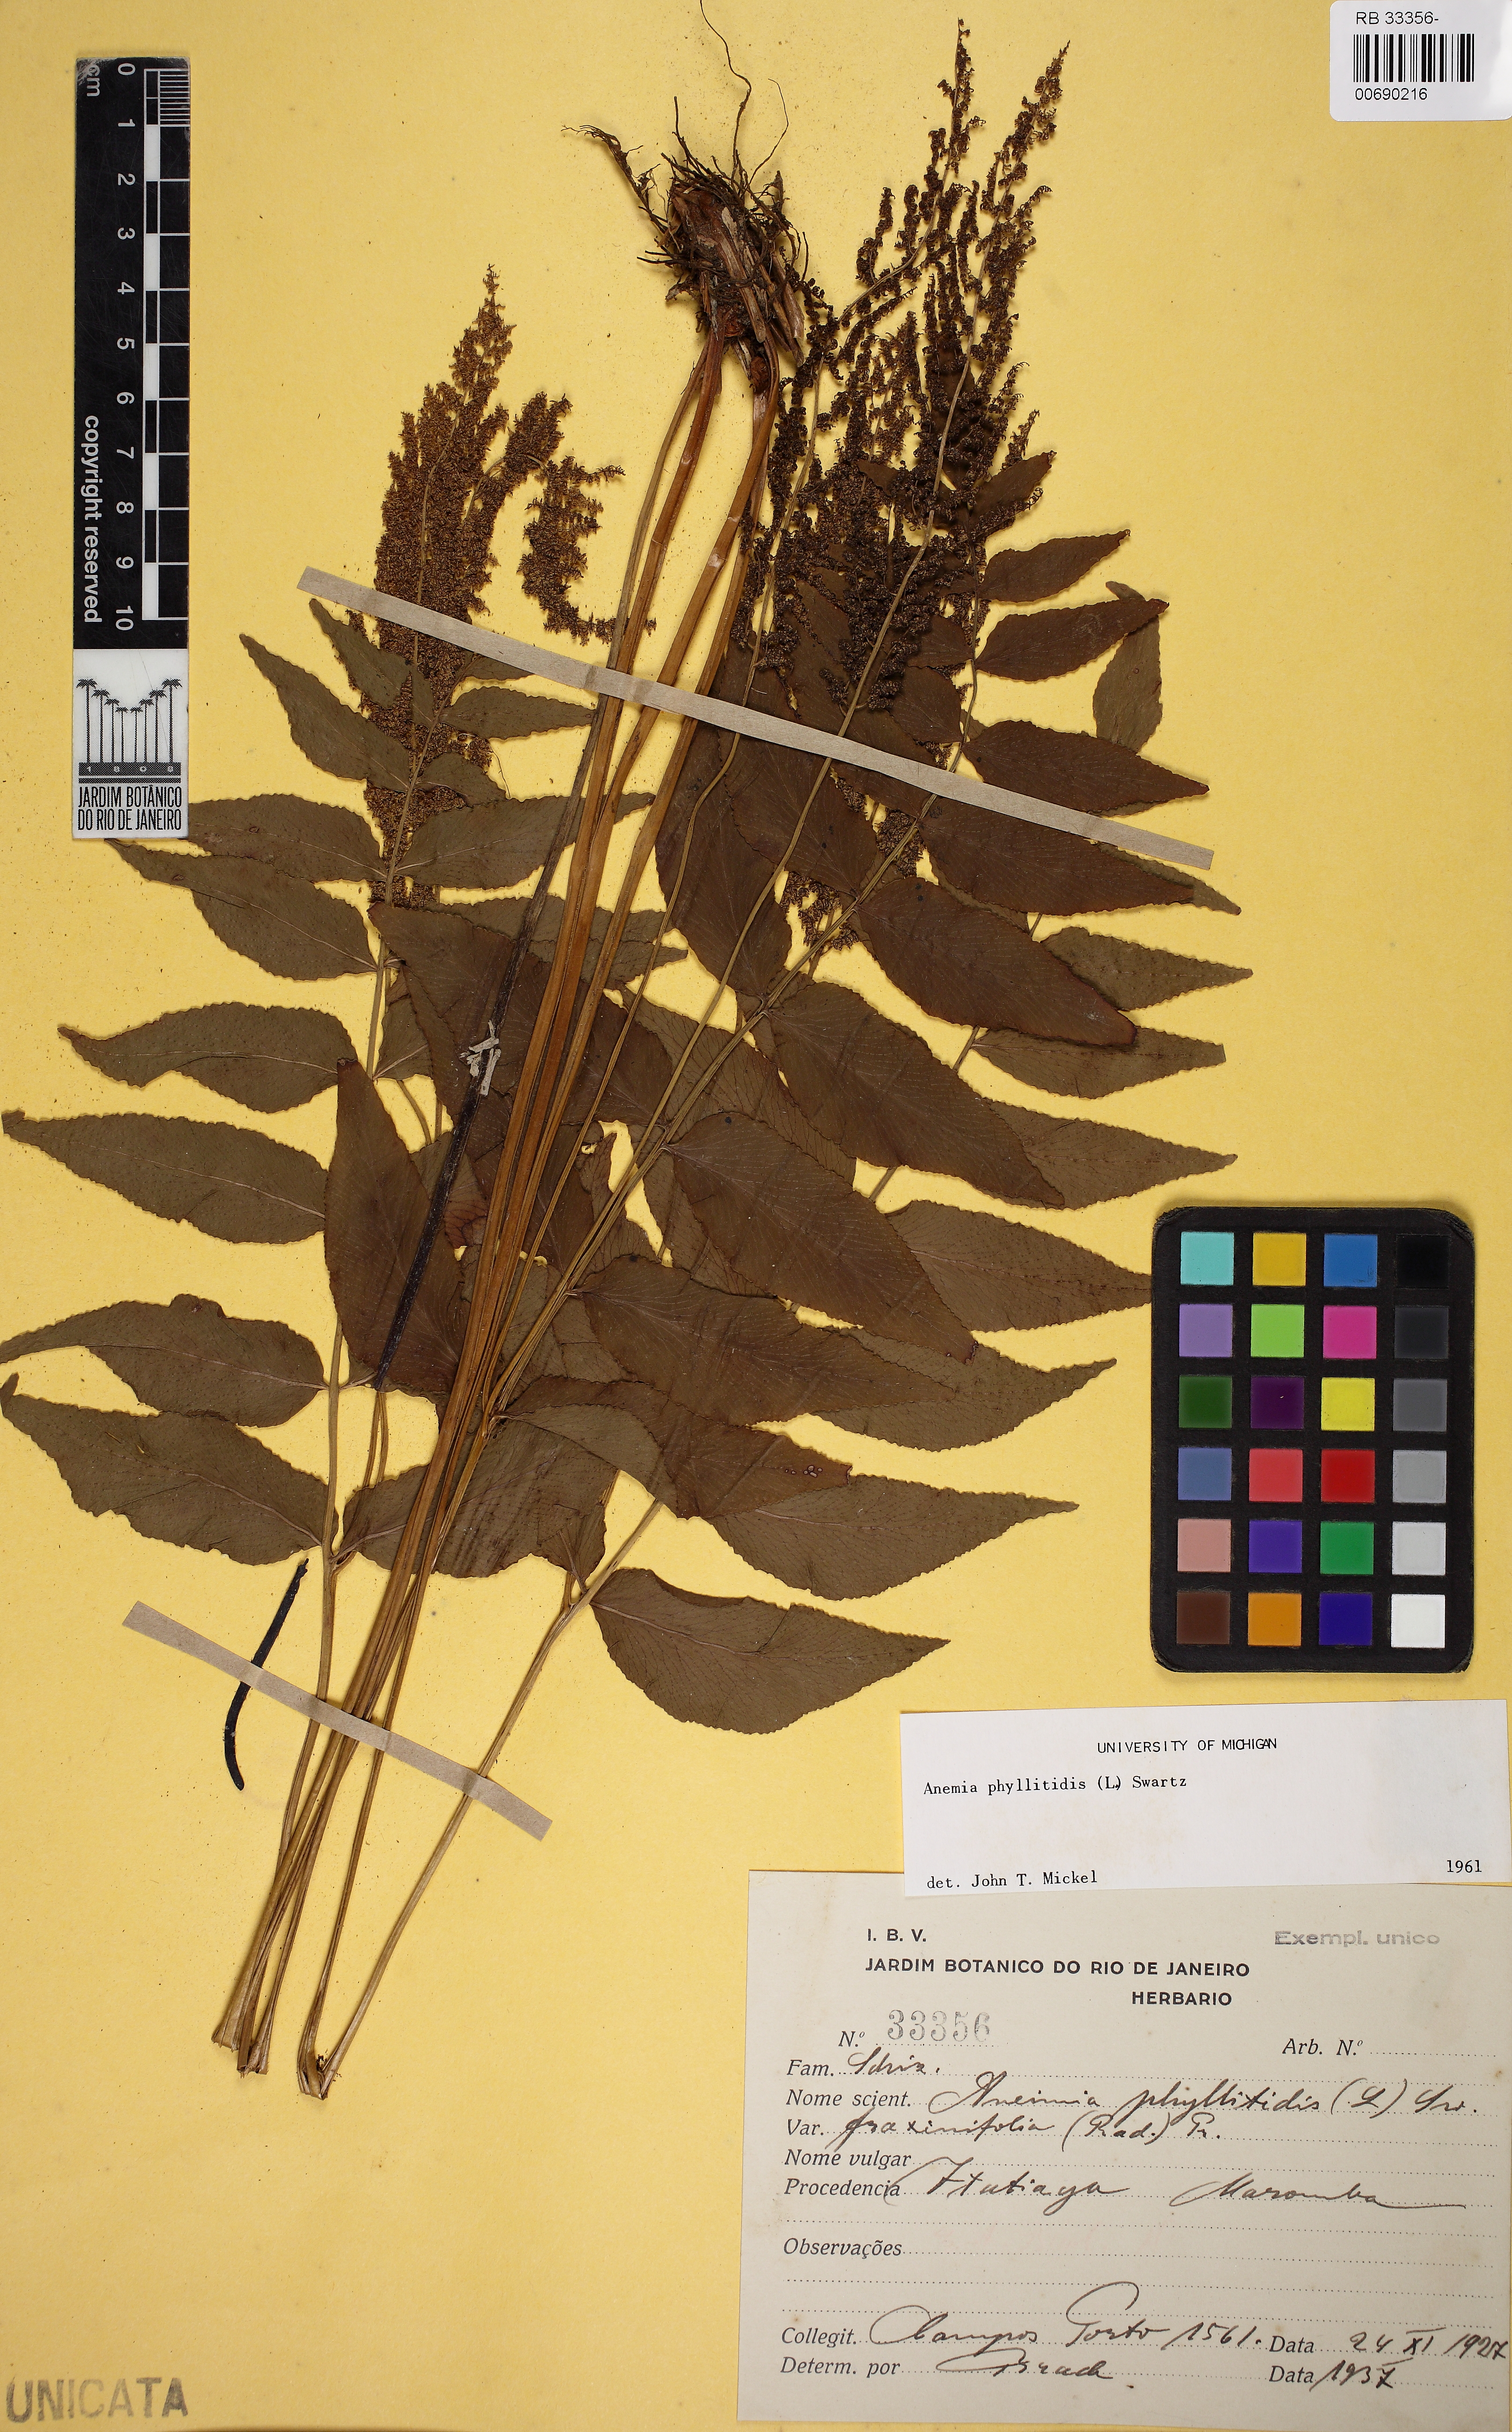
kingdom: Plantae
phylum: Tracheophyta
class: Polypodiopsida
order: Schizaeales
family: Anemiaceae
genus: Anemia
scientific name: Anemia phyllitidis
